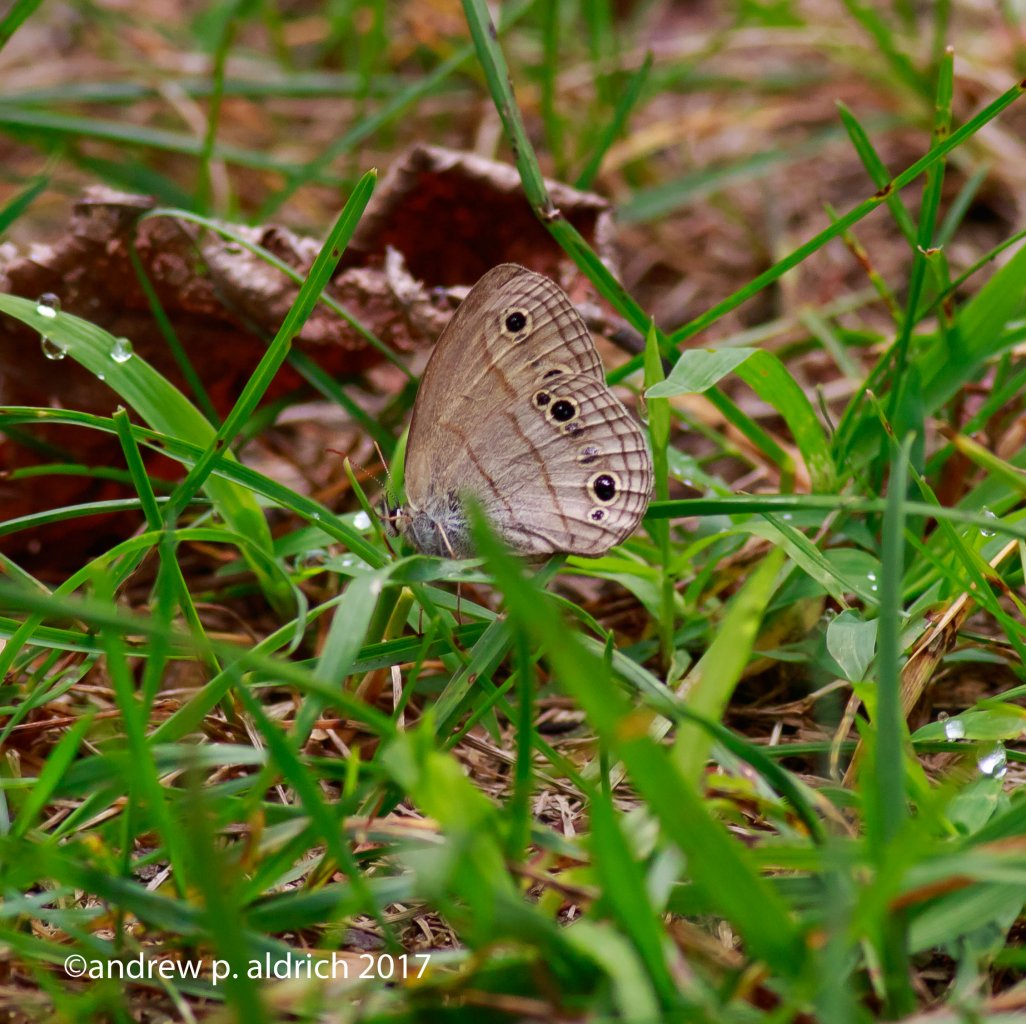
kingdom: Animalia
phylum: Arthropoda
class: Insecta
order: Lepidoptera
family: Nymphalidae
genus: Euptychia
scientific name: Euptychia cymela
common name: Little Wood Satyr
